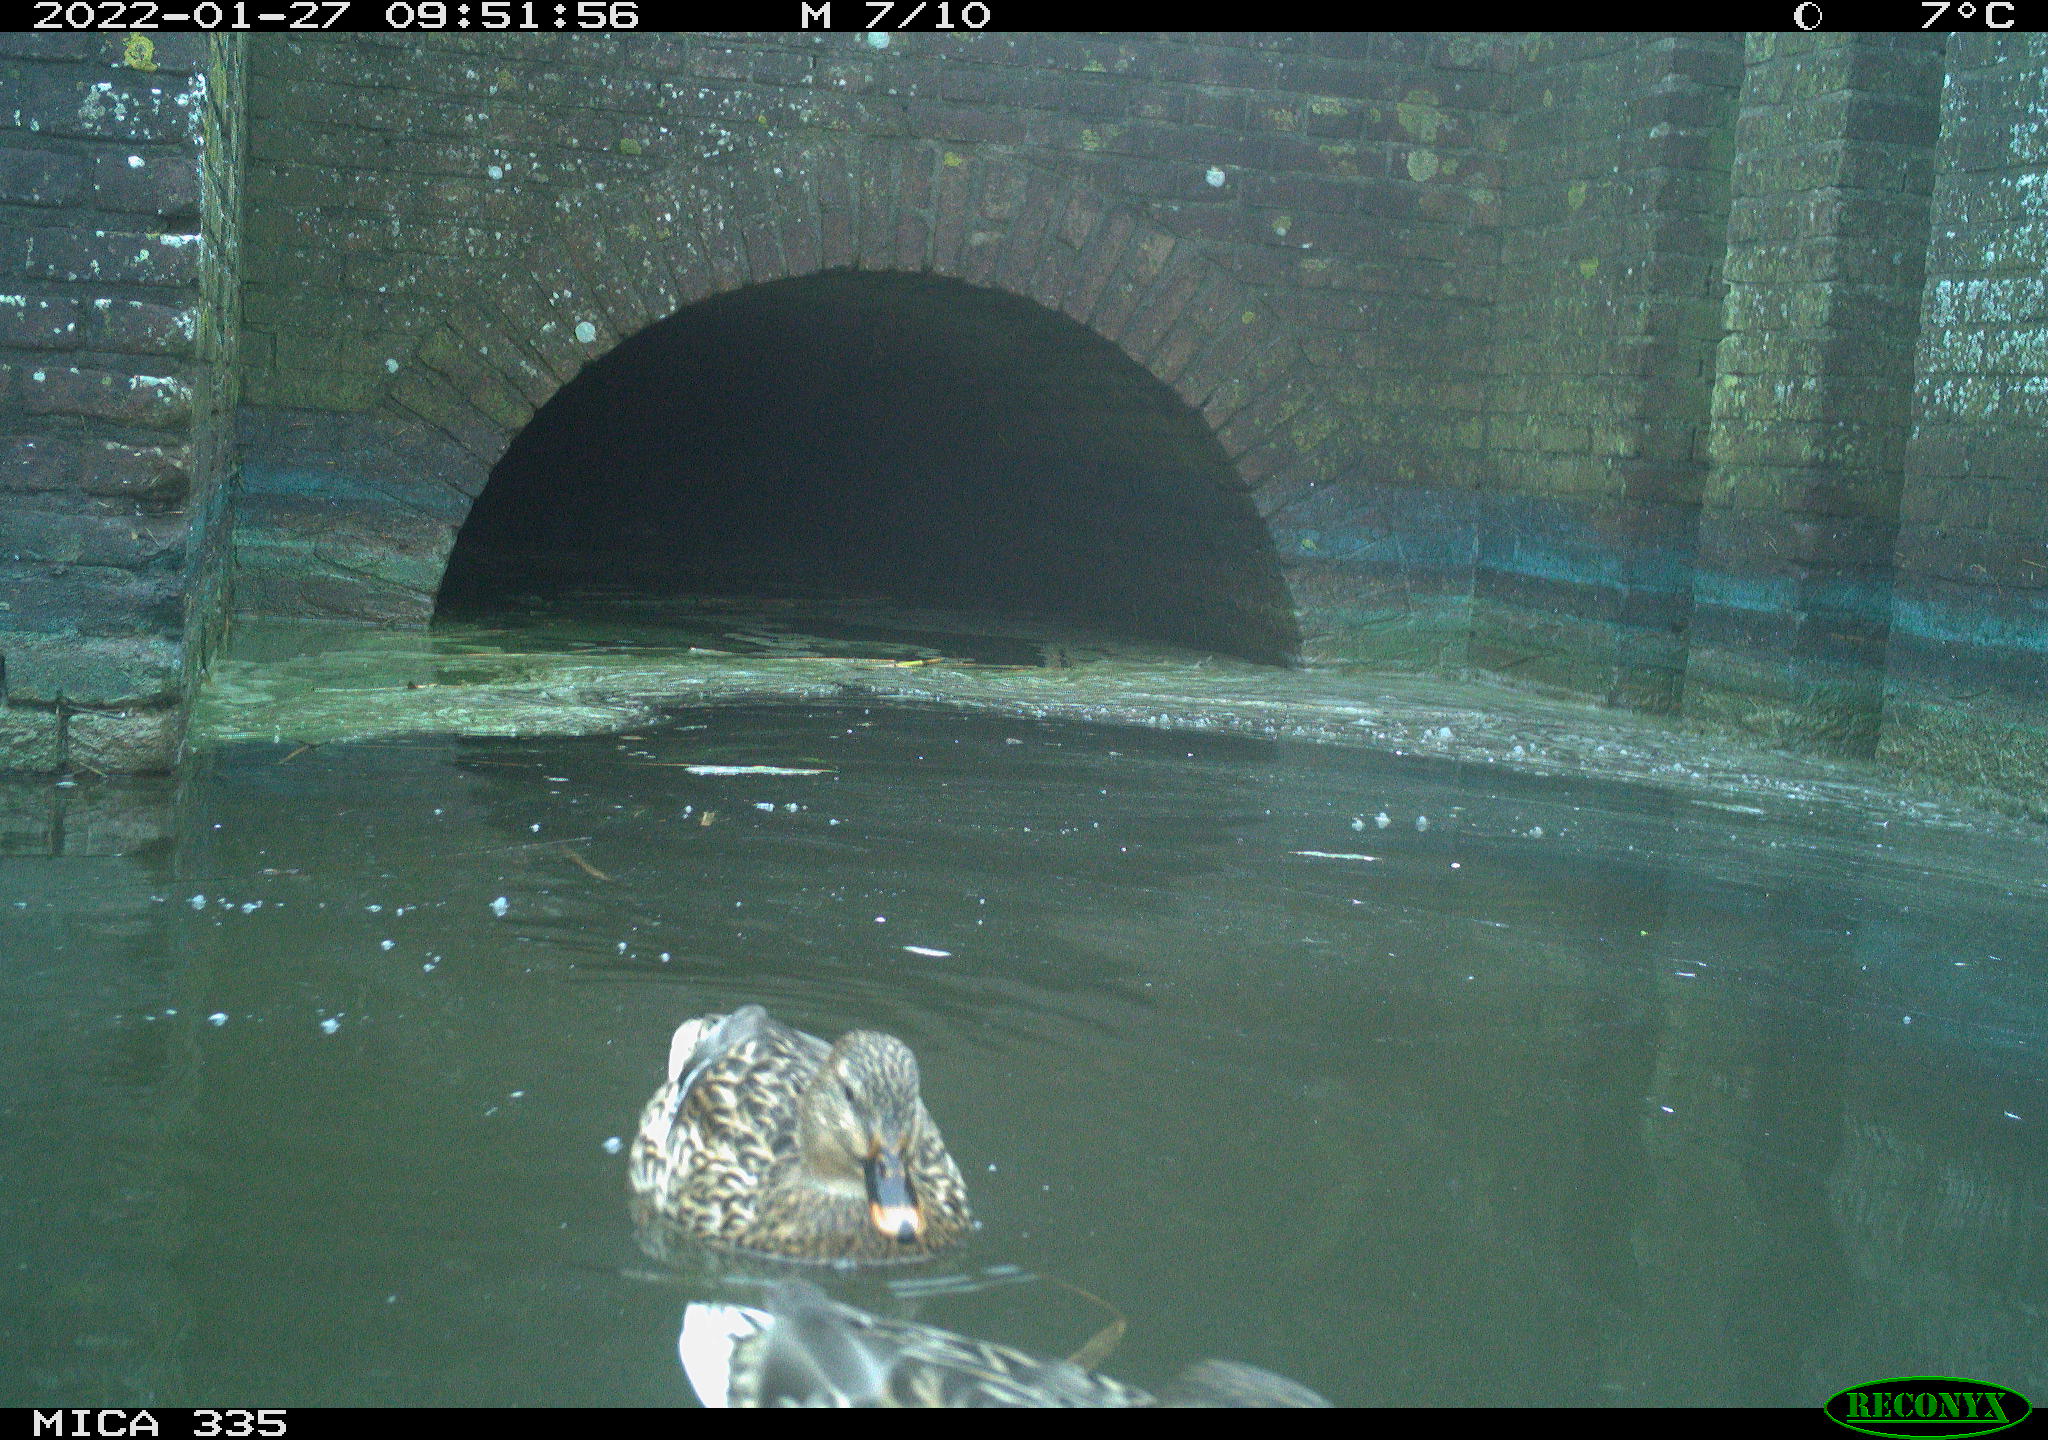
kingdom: Animalia
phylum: Chordata
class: Aves
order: Anseriformes
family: Anatidae
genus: Anas
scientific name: Anas platyrhynchos
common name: Mallard
